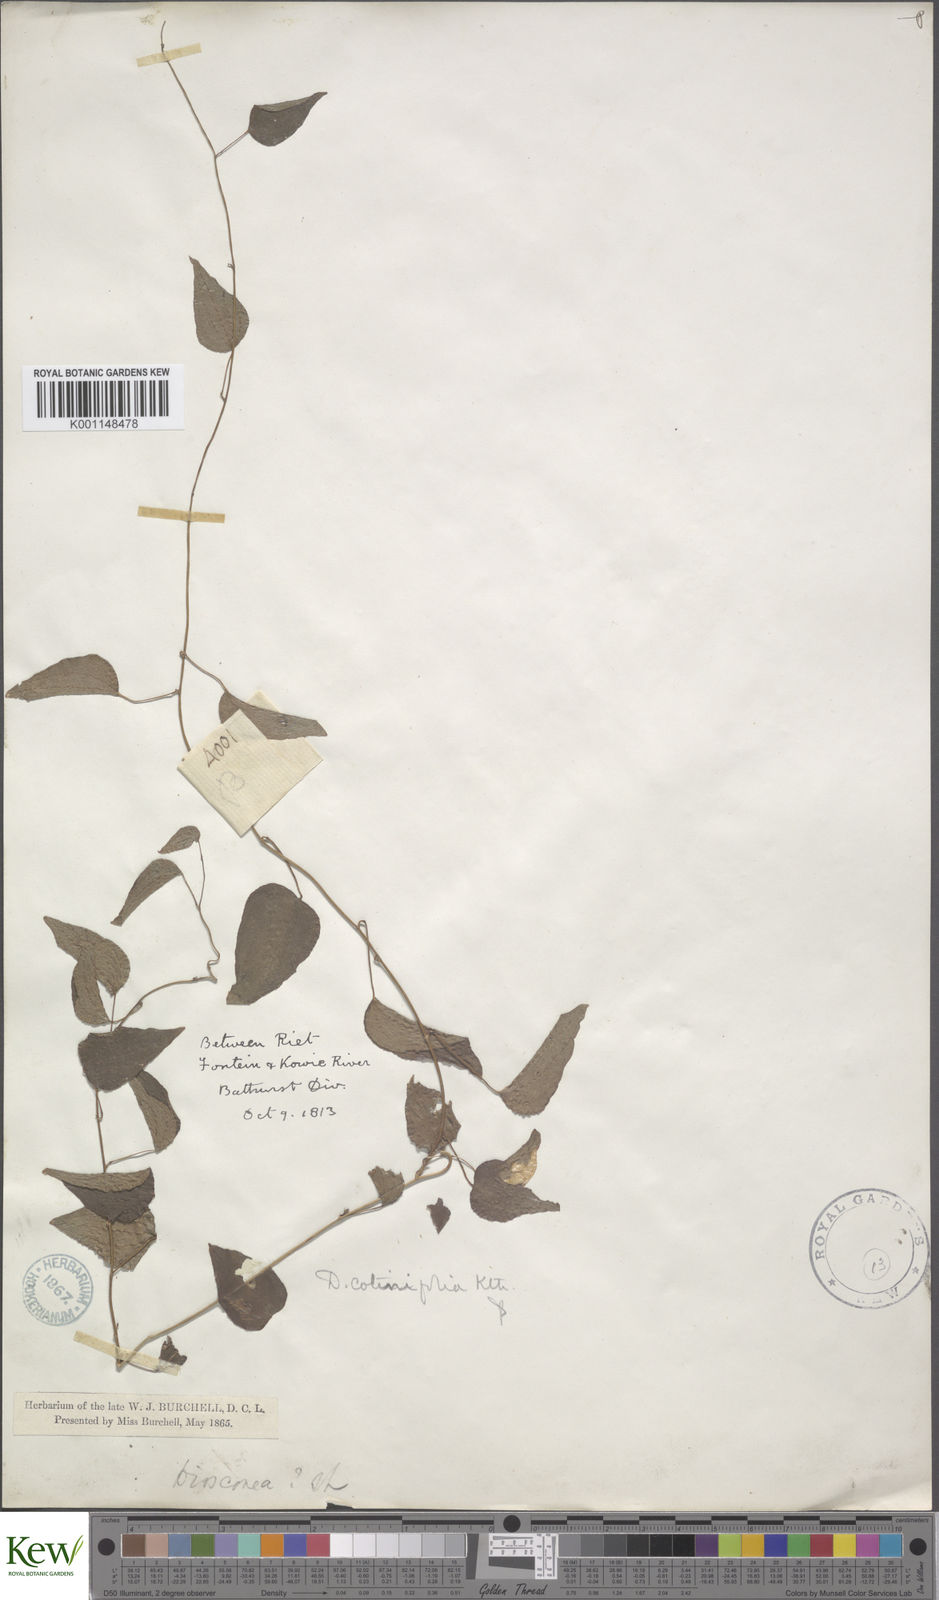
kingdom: Plantae
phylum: Tracheophyta
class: Liliopsida
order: Dioscoreales
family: Dioscoreaceae
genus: Dioscorea
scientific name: Dioscorea cotinifolia
